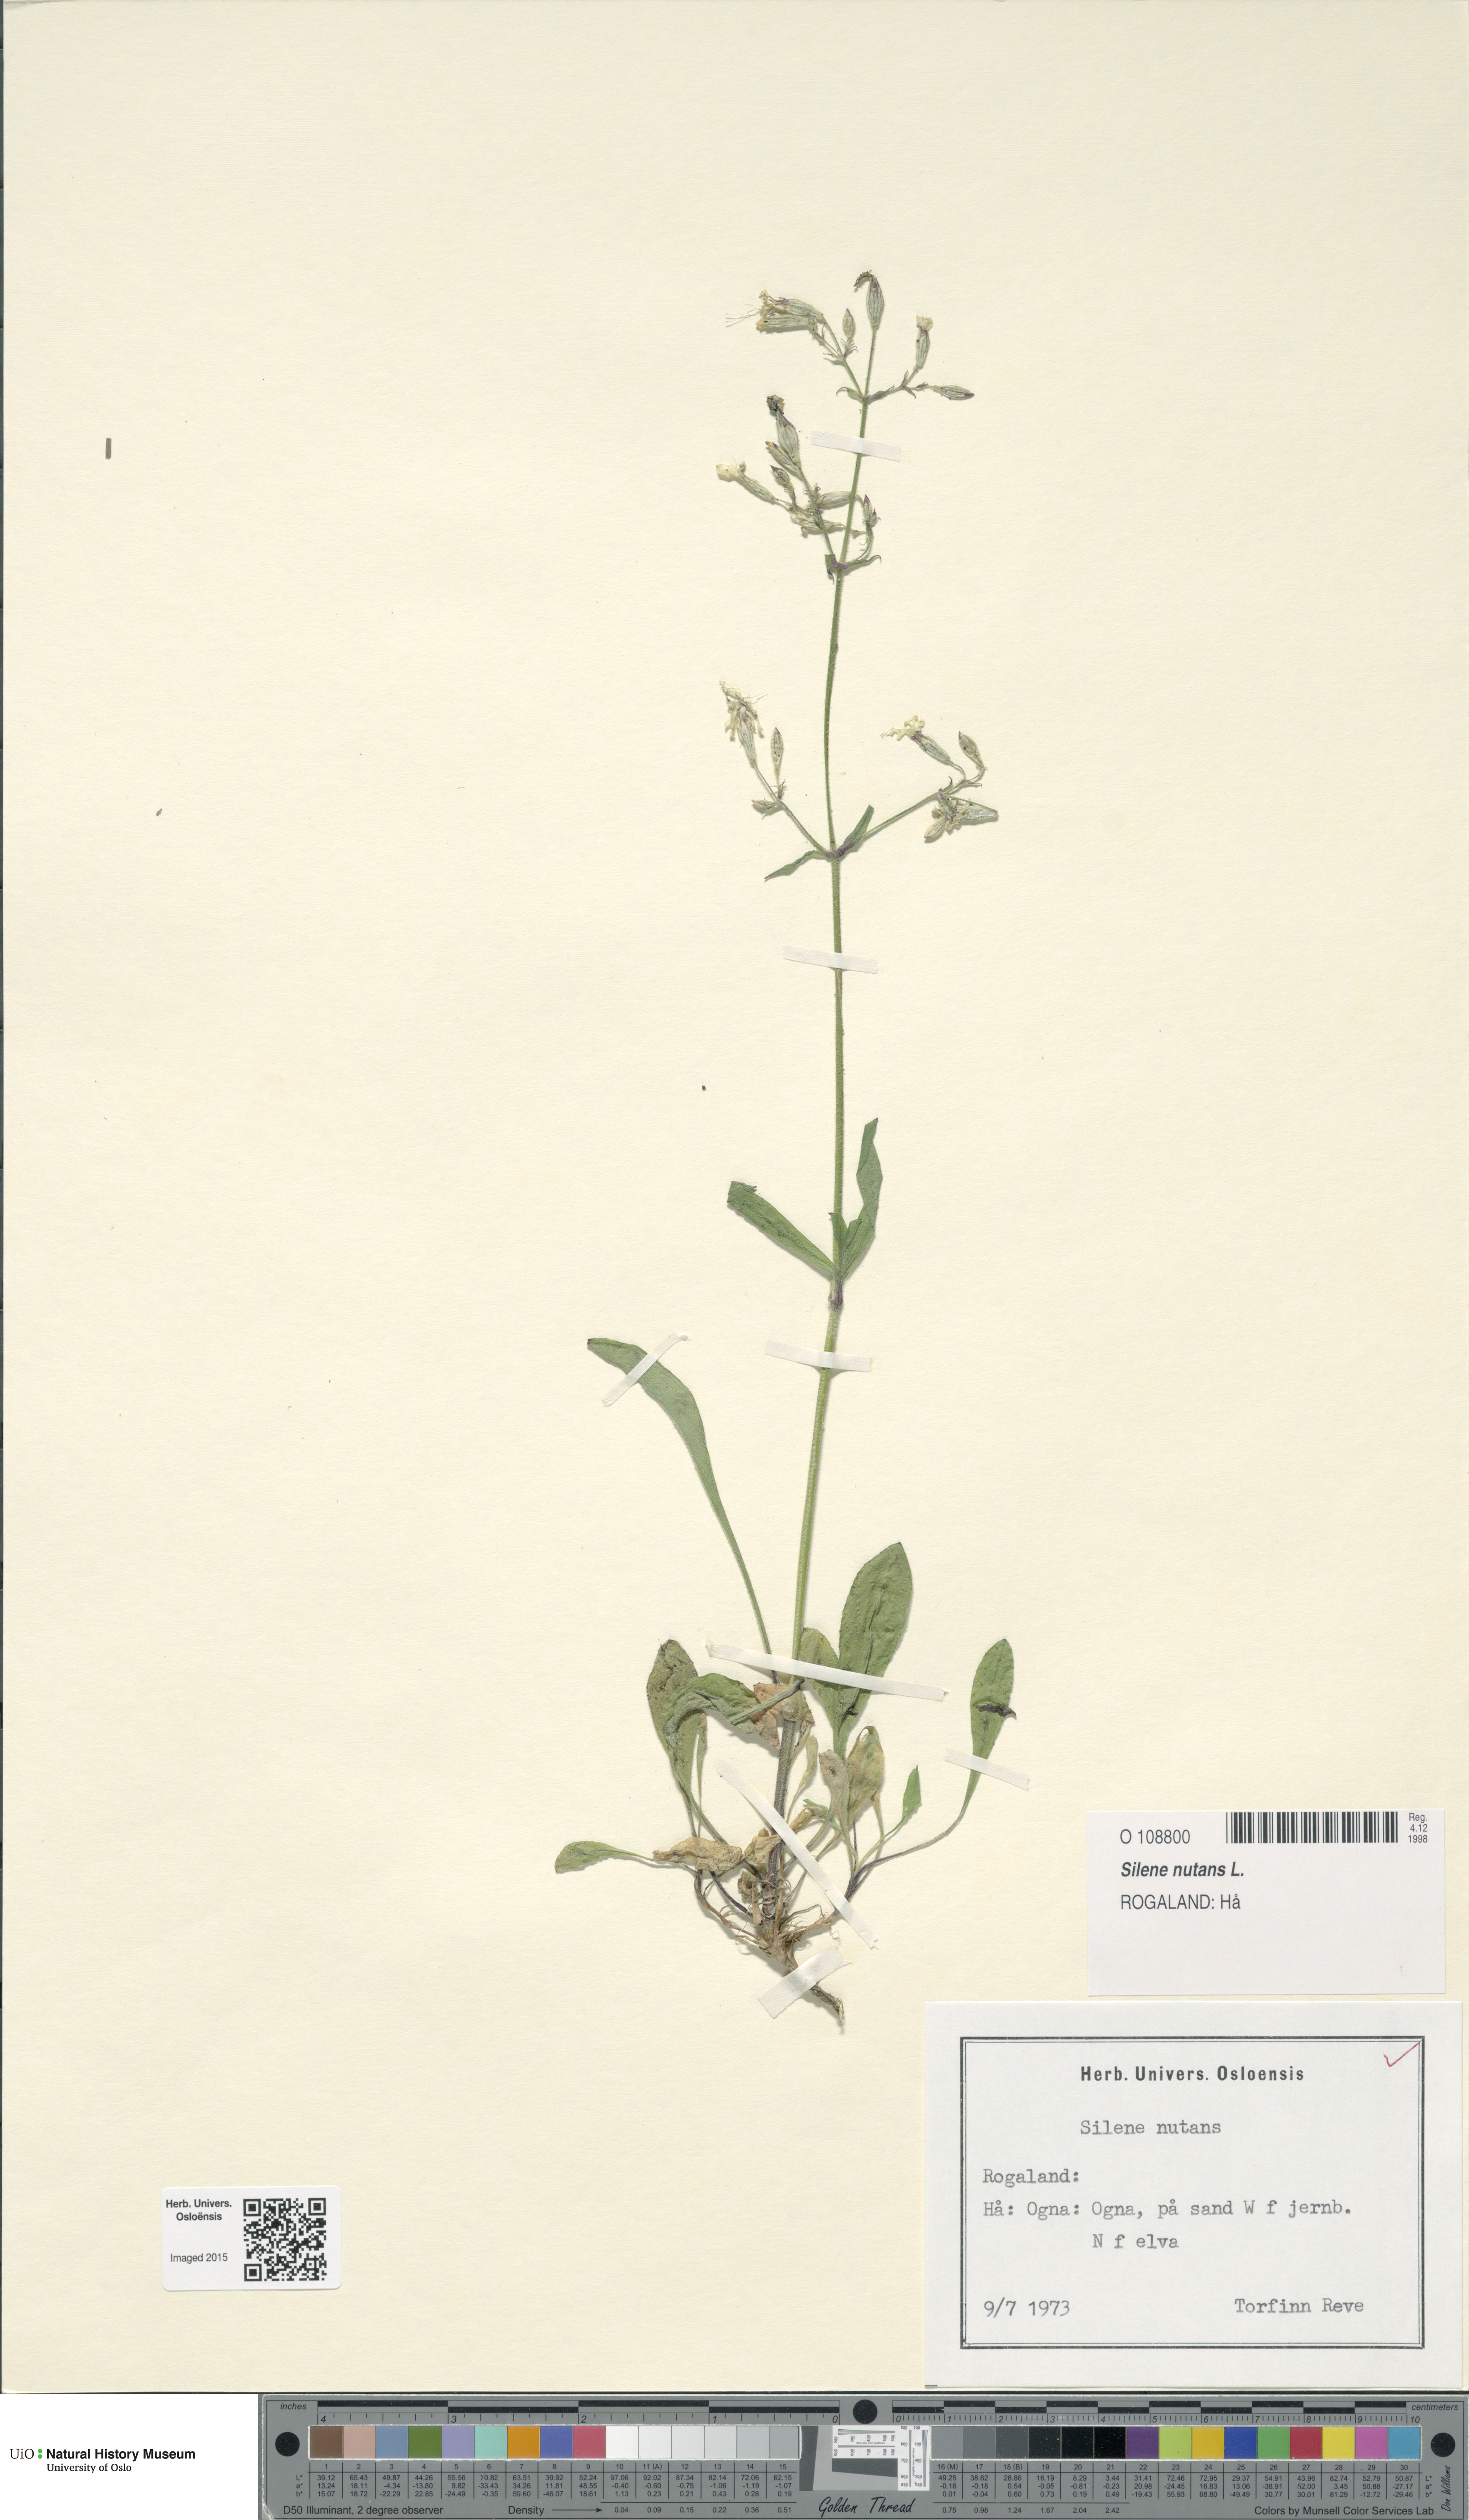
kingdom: Plantae
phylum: Tracheophyta
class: Magnoliopsida
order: Caryophyllales
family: Caryophyllaceae
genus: Silene
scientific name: Silene nutans
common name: Nottingham catchfly
